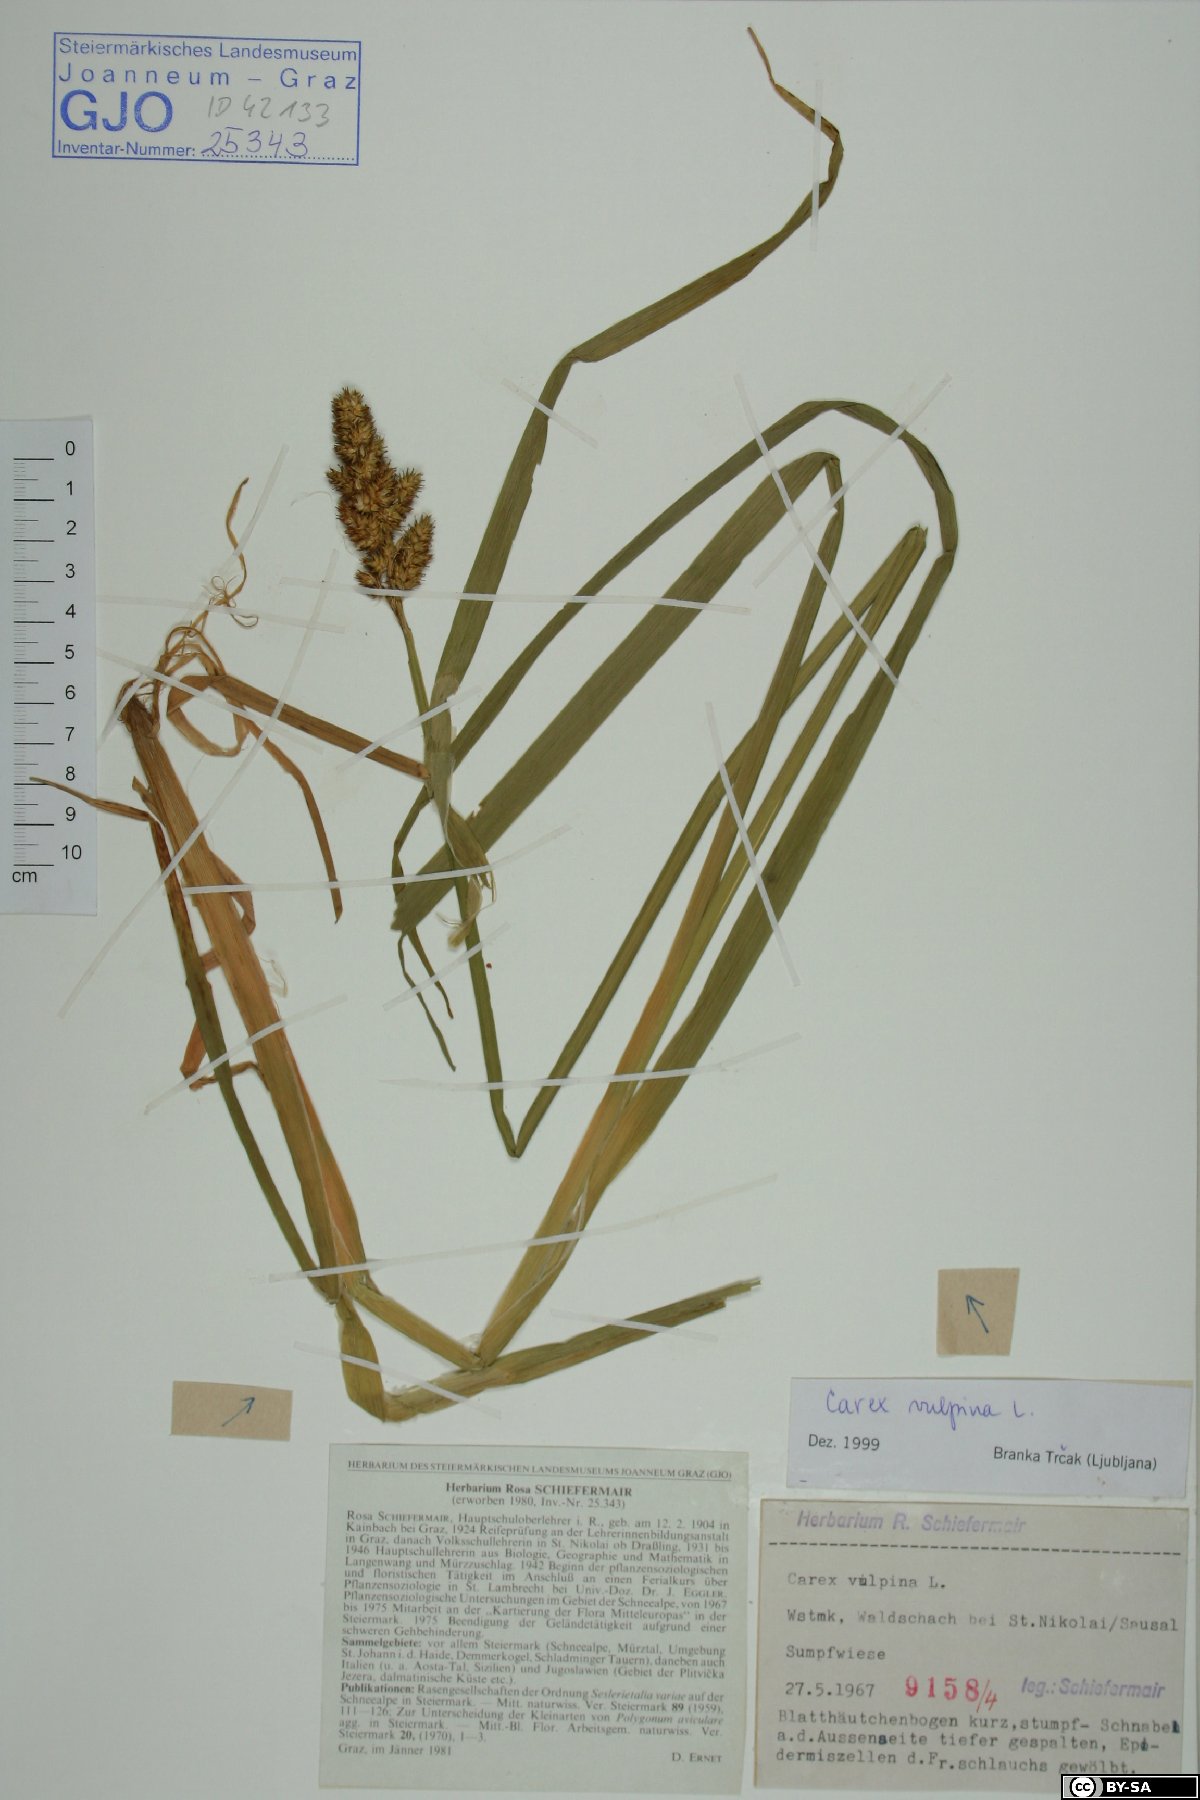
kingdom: Plantae
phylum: Tracheophyta
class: Liliopsida
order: Poales
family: Cyperaceae
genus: Carex
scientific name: Carex vulpina
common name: True fox-sedge
